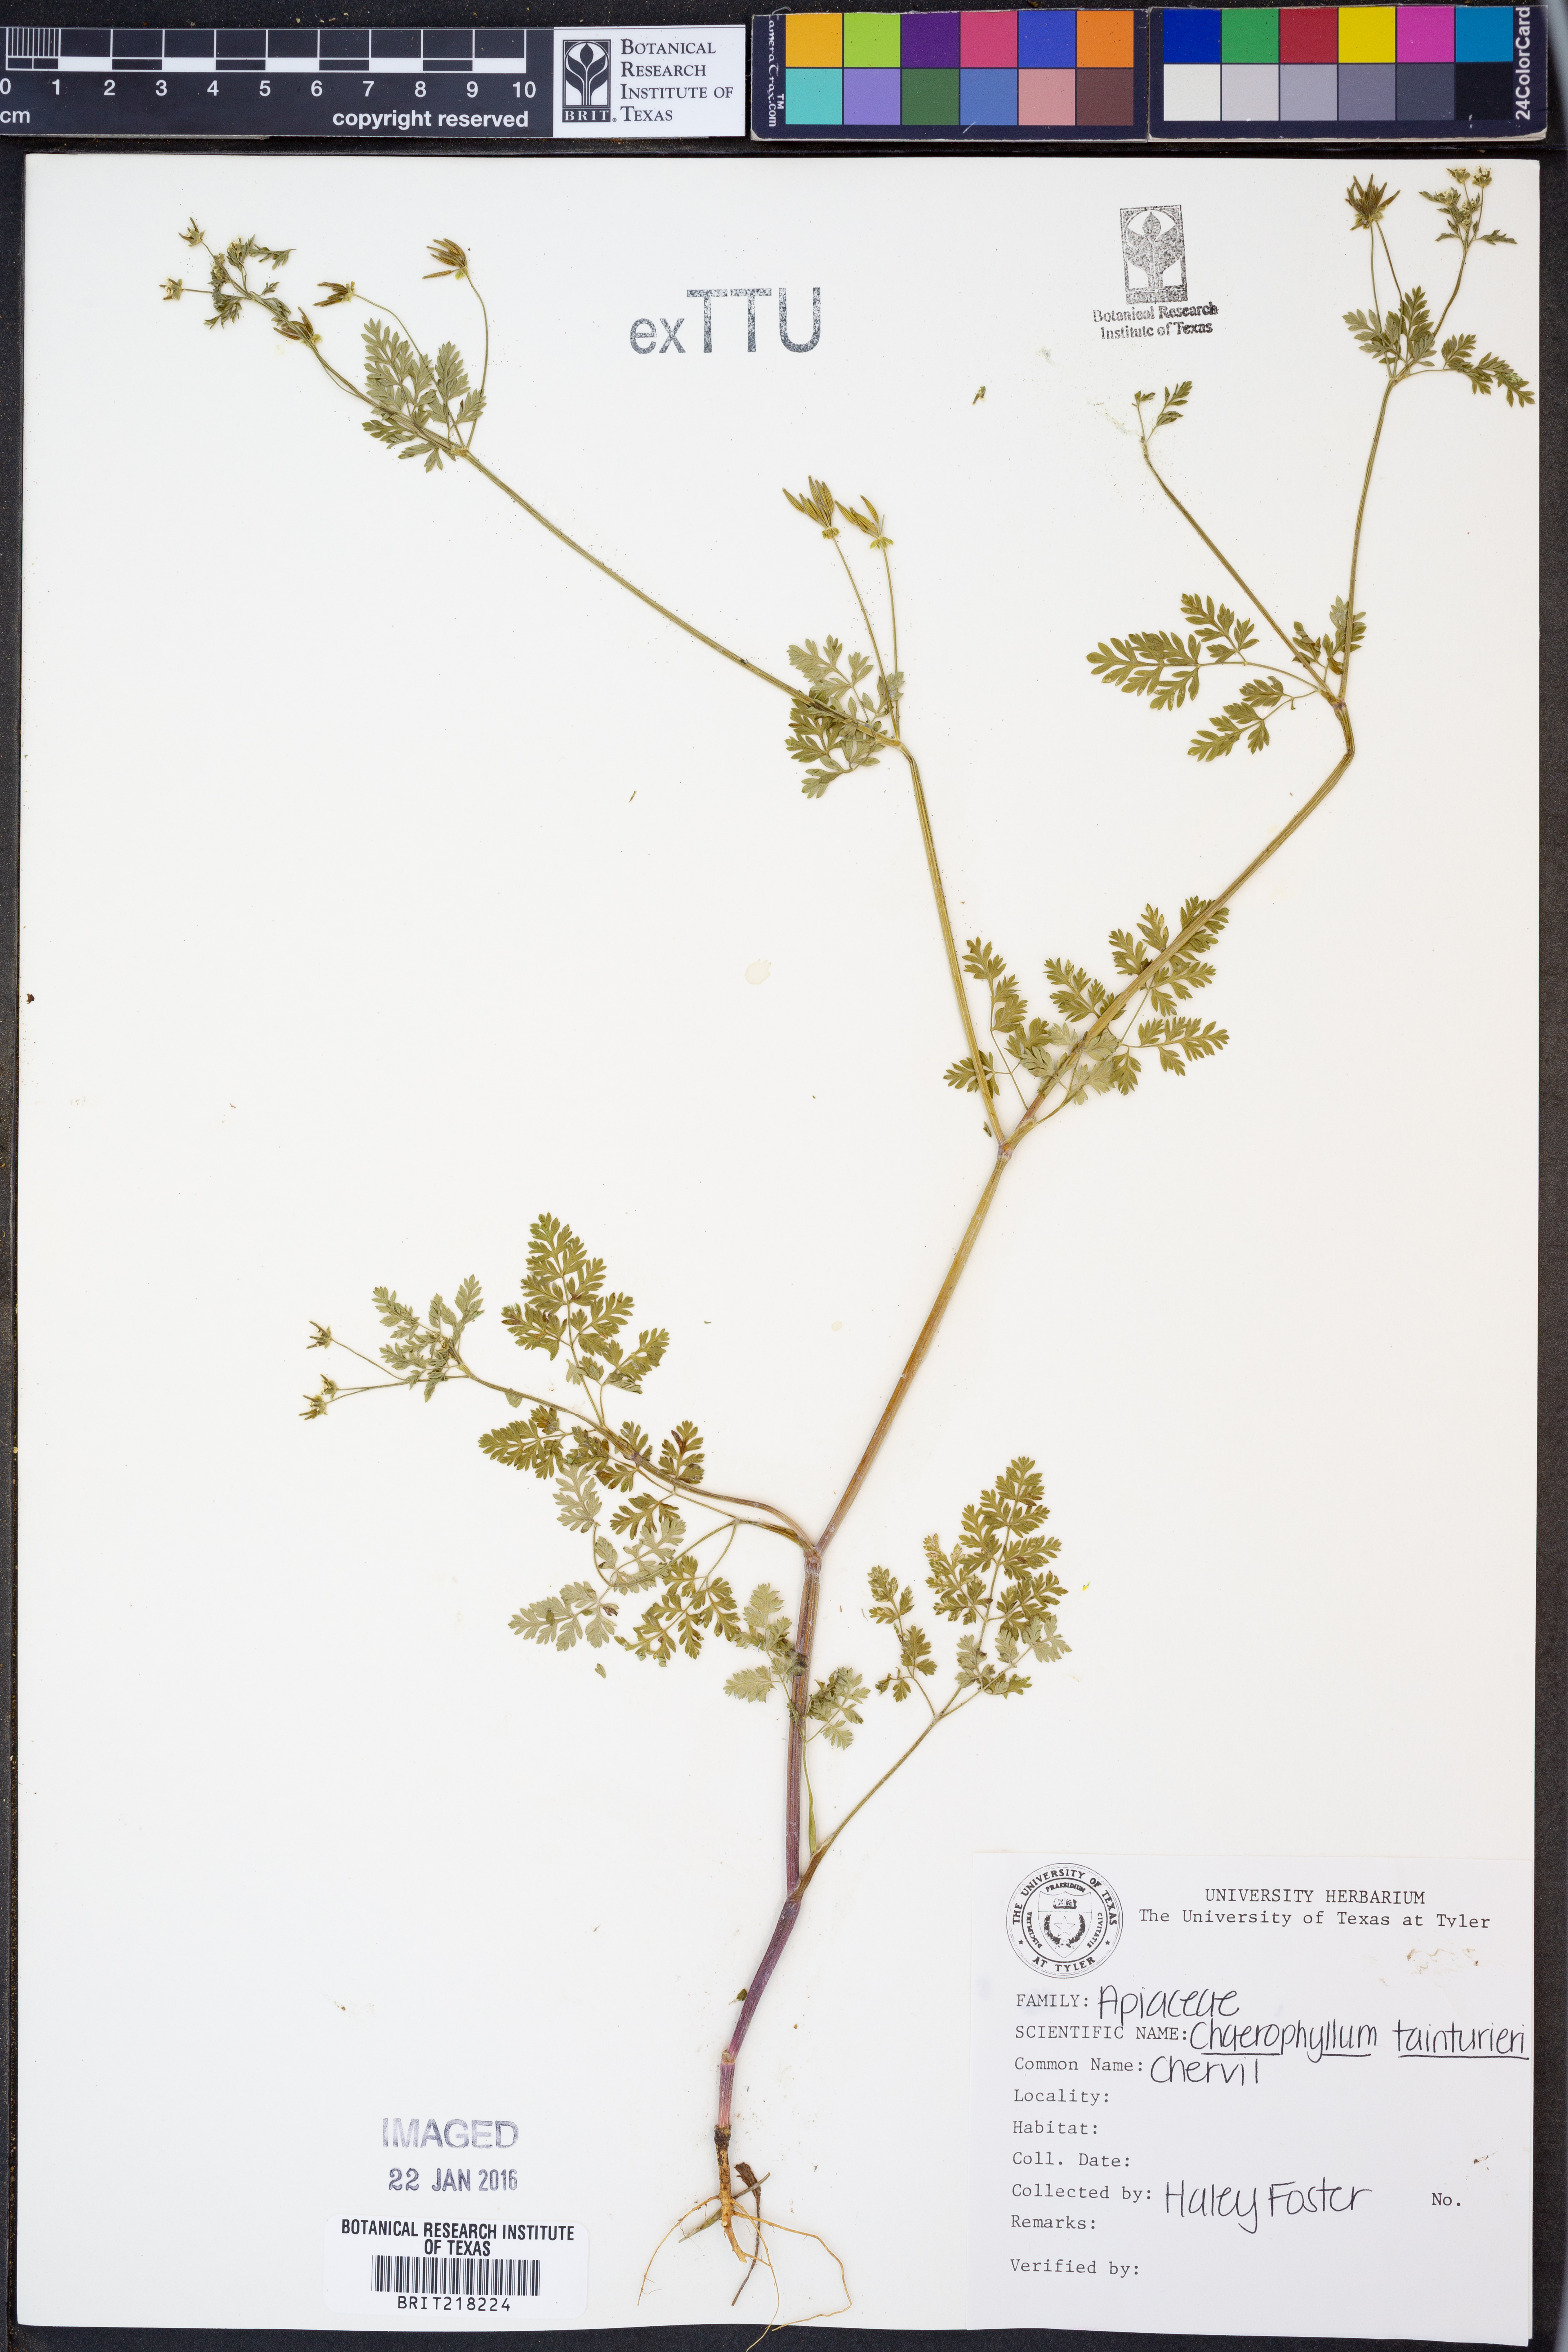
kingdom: Plantae
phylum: Tracheophyta
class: Magnoliopsida
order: Apiales
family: Apiaceae
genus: Chaerophyllum
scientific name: Chaerophyllum tainturieri
